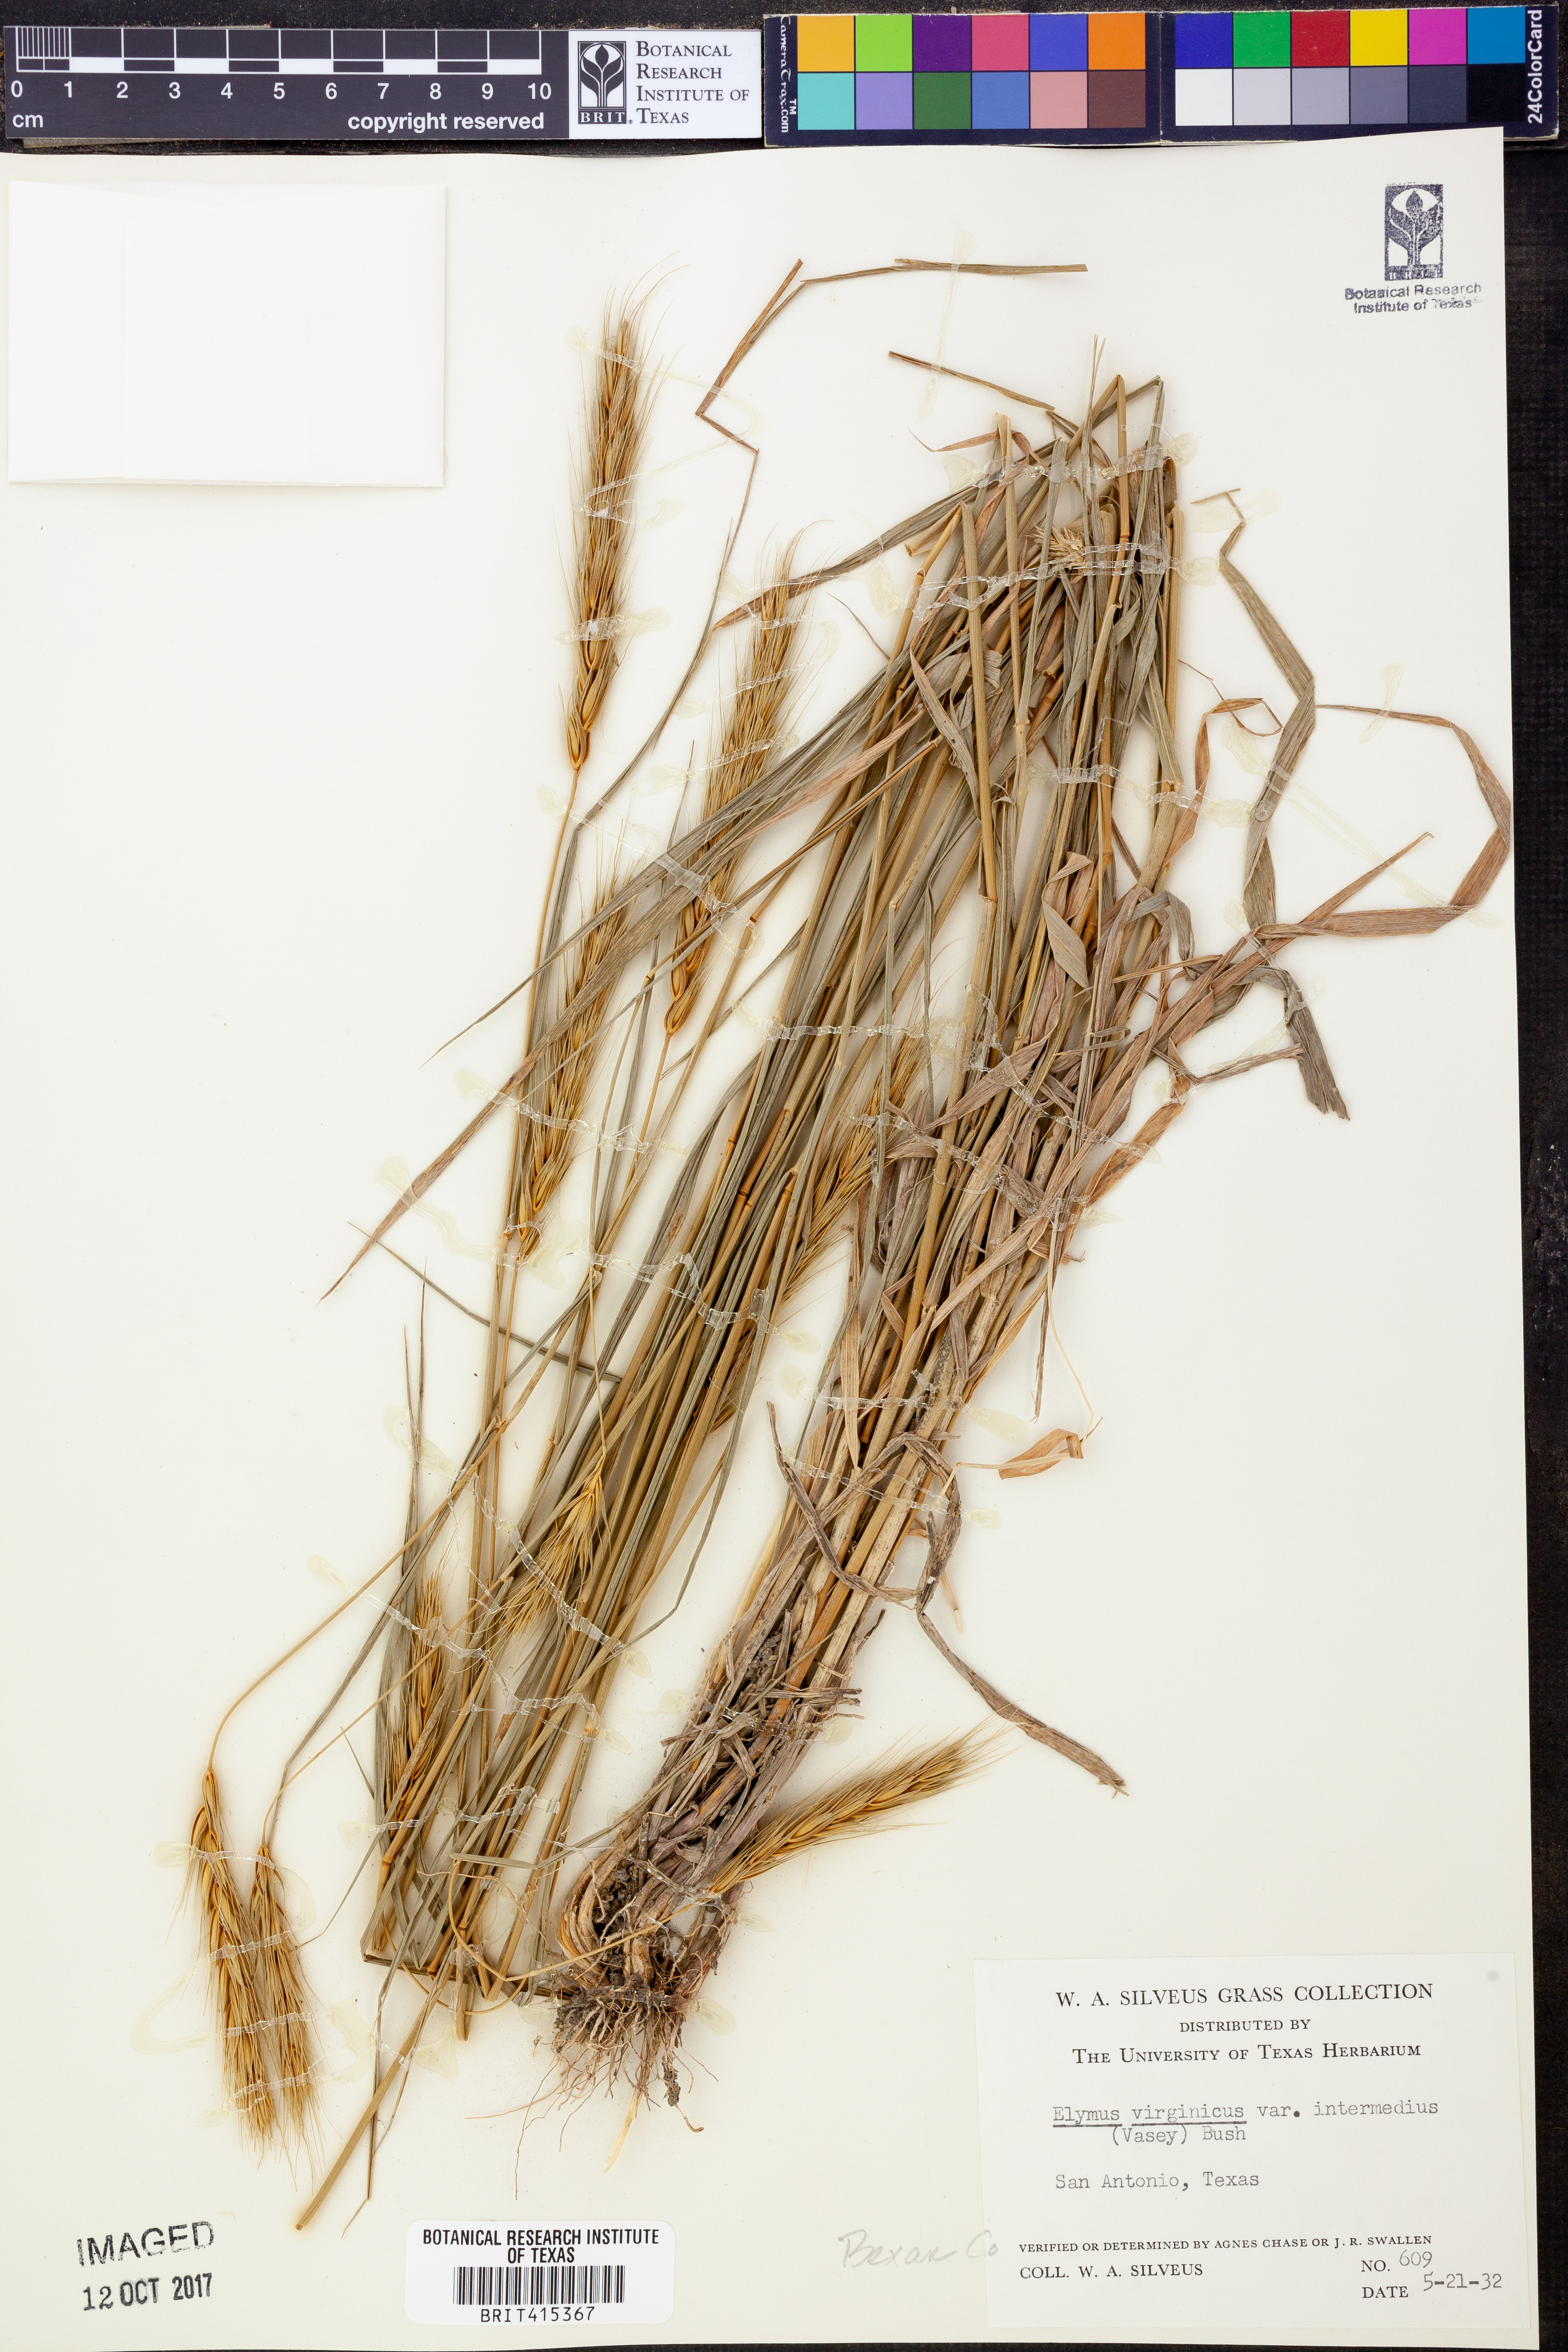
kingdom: Plantae
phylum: Tracheophyta
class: Liliopsida
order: Poales
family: Poaceae
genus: Elymus
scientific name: Elymus virginicus
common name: Common eastern wildrye
